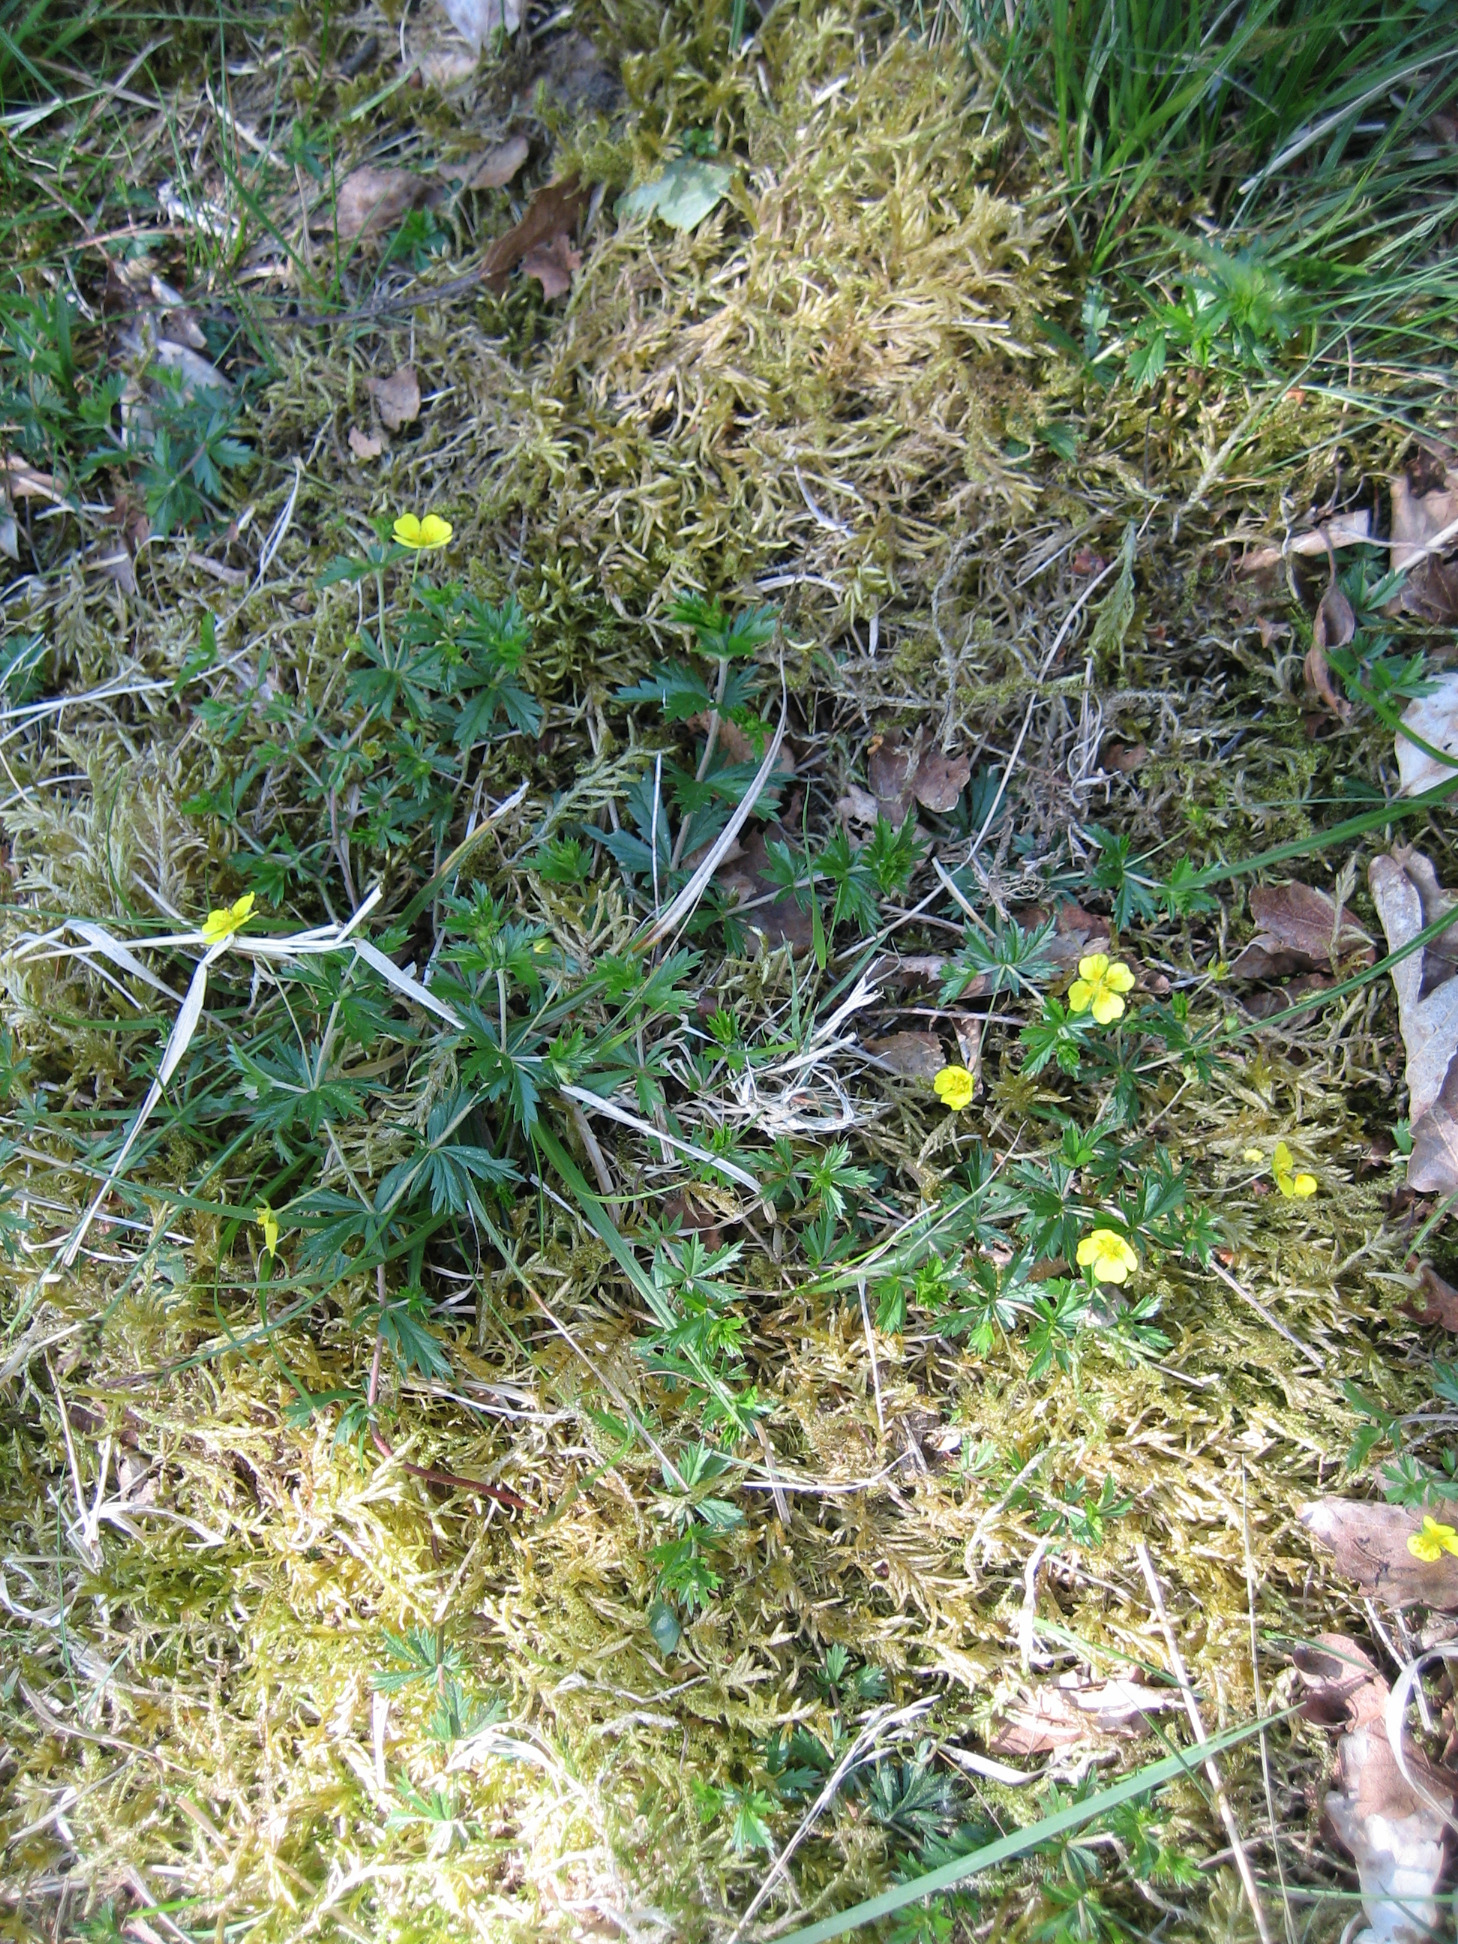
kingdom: Plantae
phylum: Tracheophyta
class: Magnoliopsida
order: Rosales
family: Rosaceae
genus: Potentilla
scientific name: Potentilla erecta
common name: Tormentil
